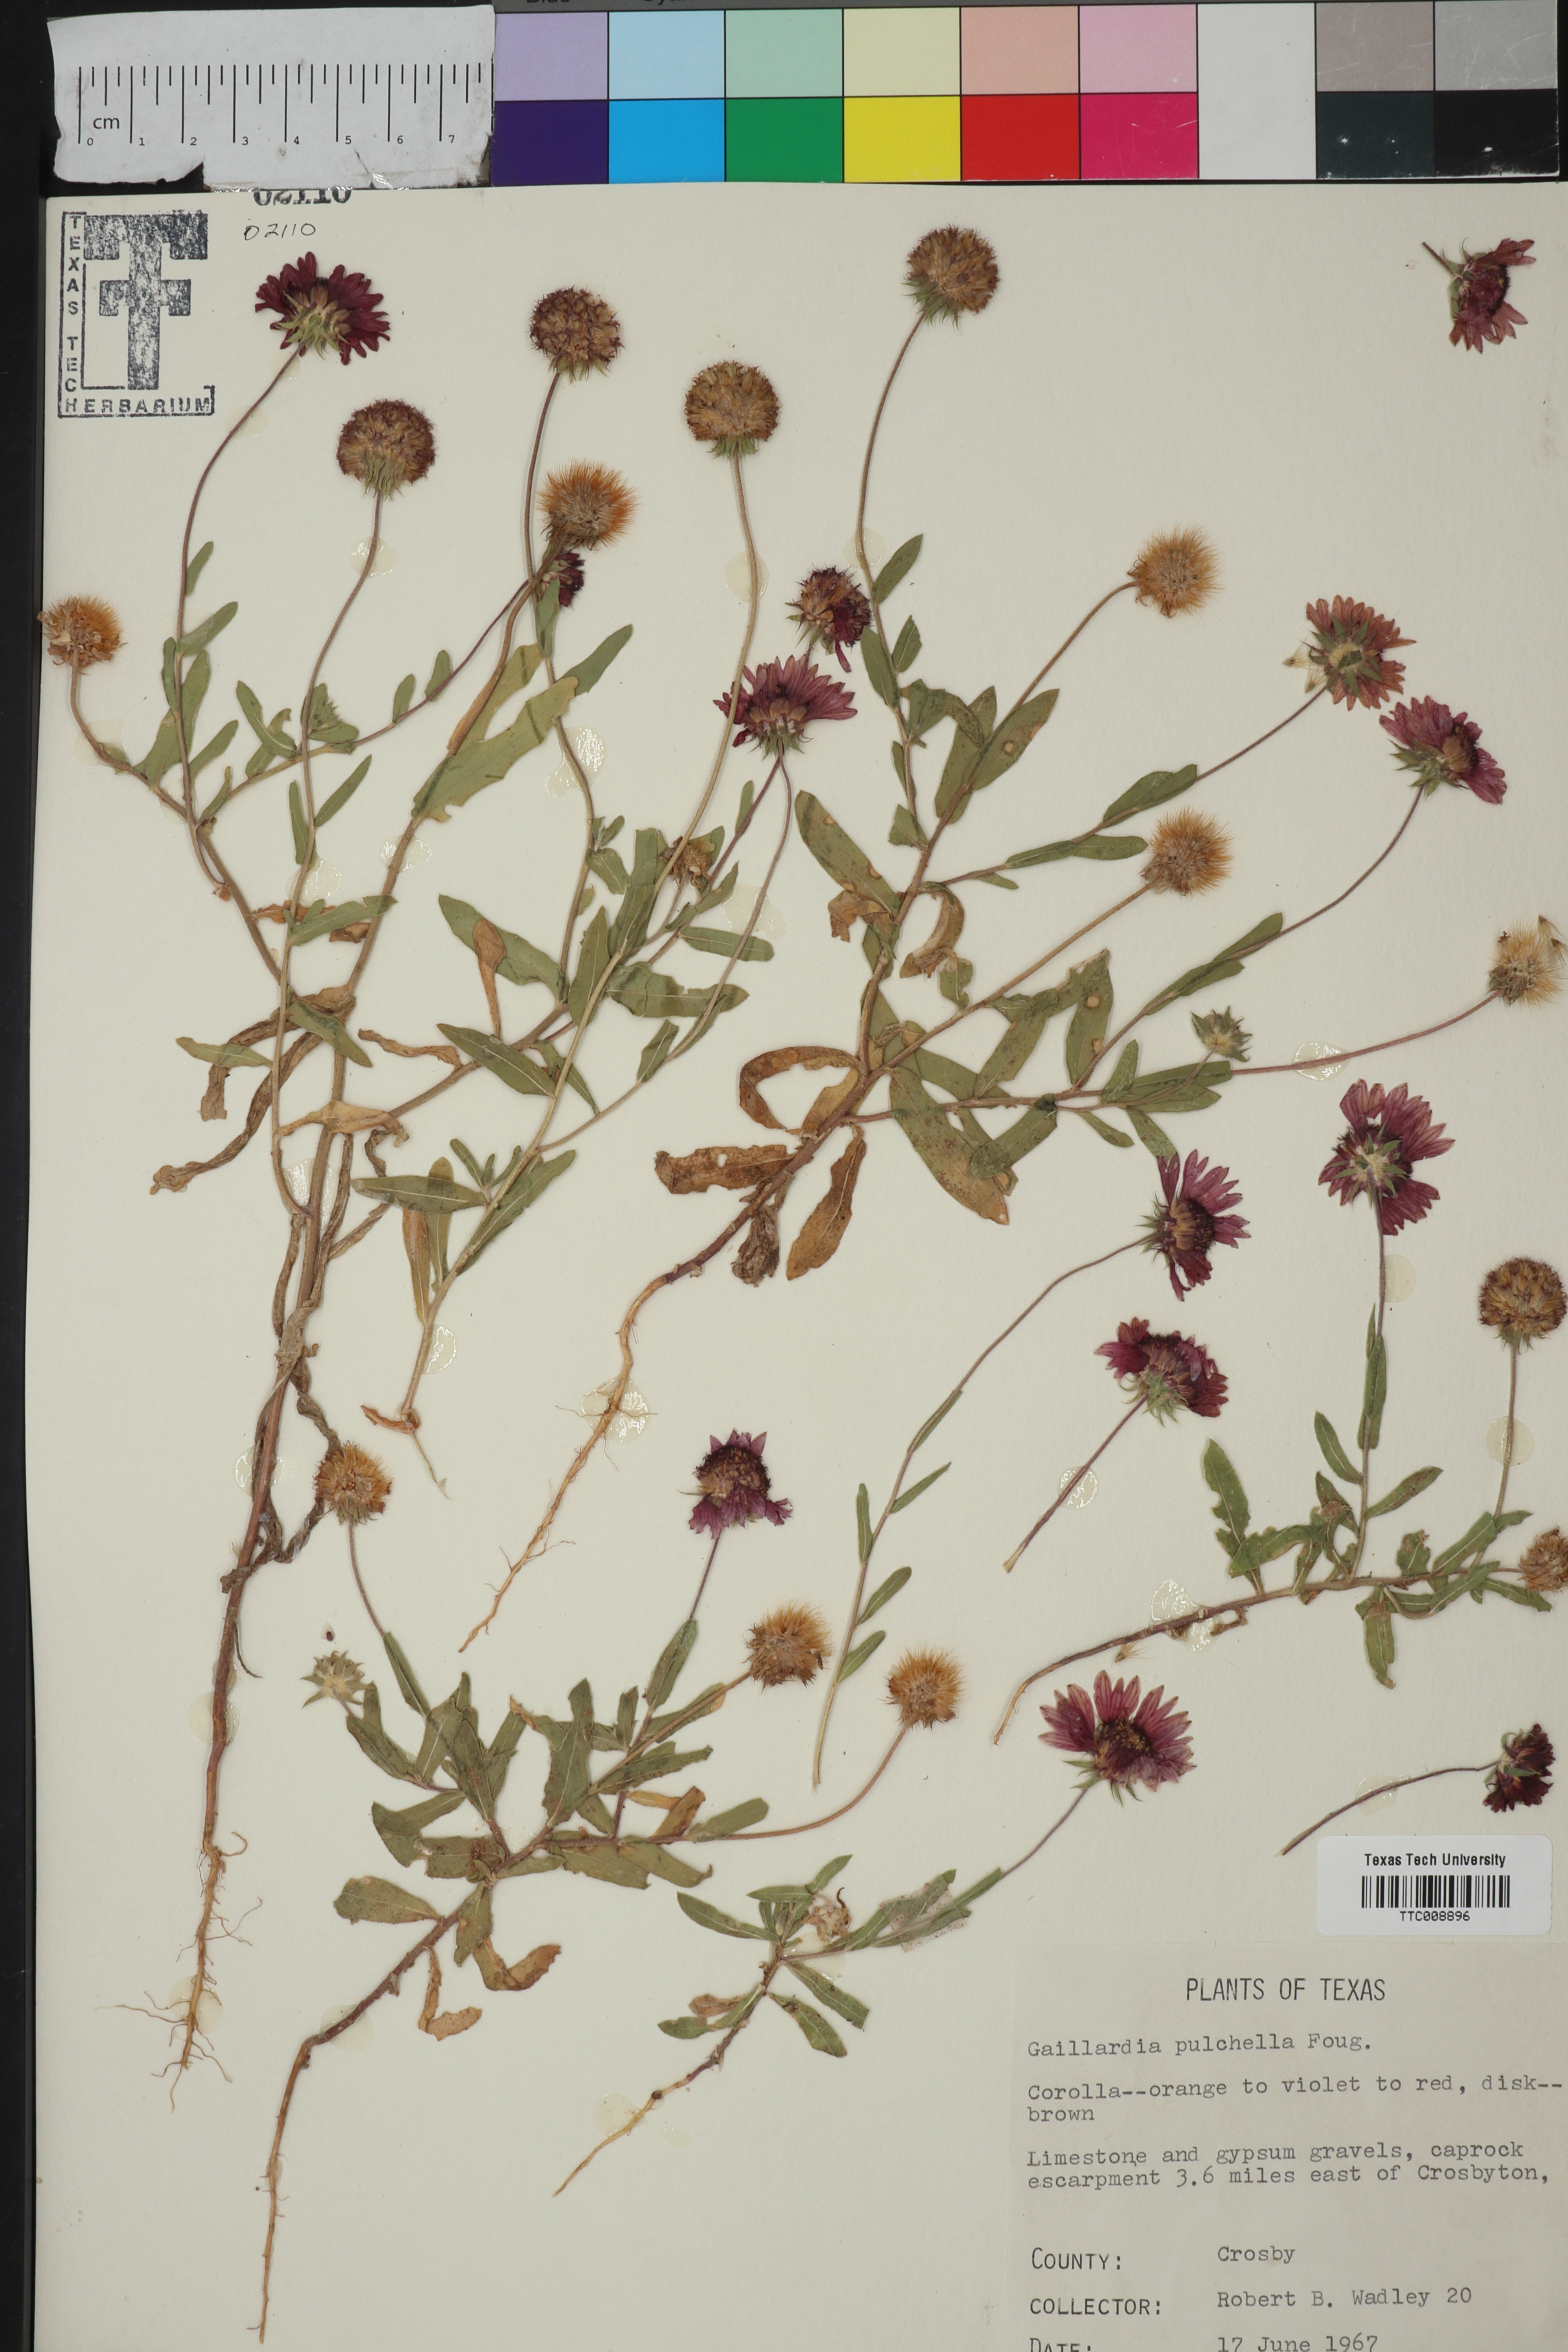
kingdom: Plantae
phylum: Tracheophyta
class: Magnoliopsida
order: Asterales
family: Asteraceae
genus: Gaillardia
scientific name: Gaillardia pulchella
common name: Firewheel
